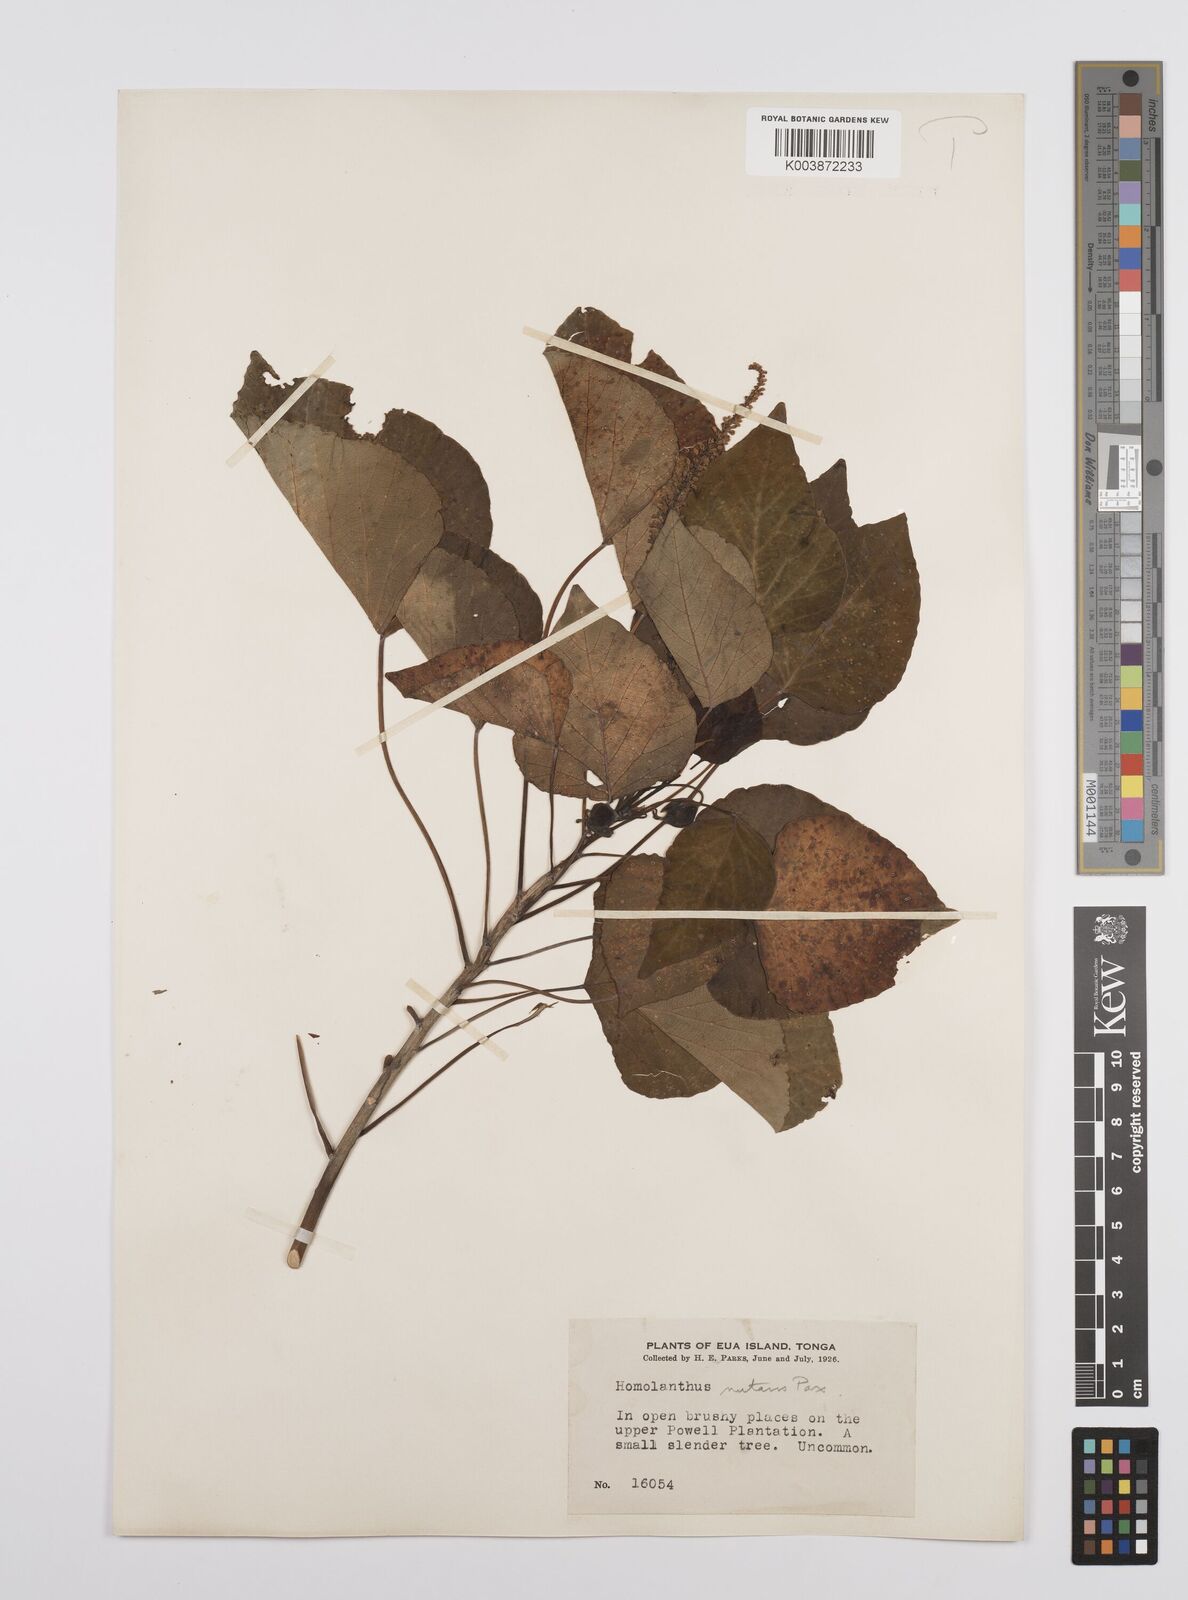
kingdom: Plantae
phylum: Tracheophyta
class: Magnoliopsida
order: Malpighiales
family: Euphorbiaceae
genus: Homalanthus
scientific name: Homalanthus nutans
